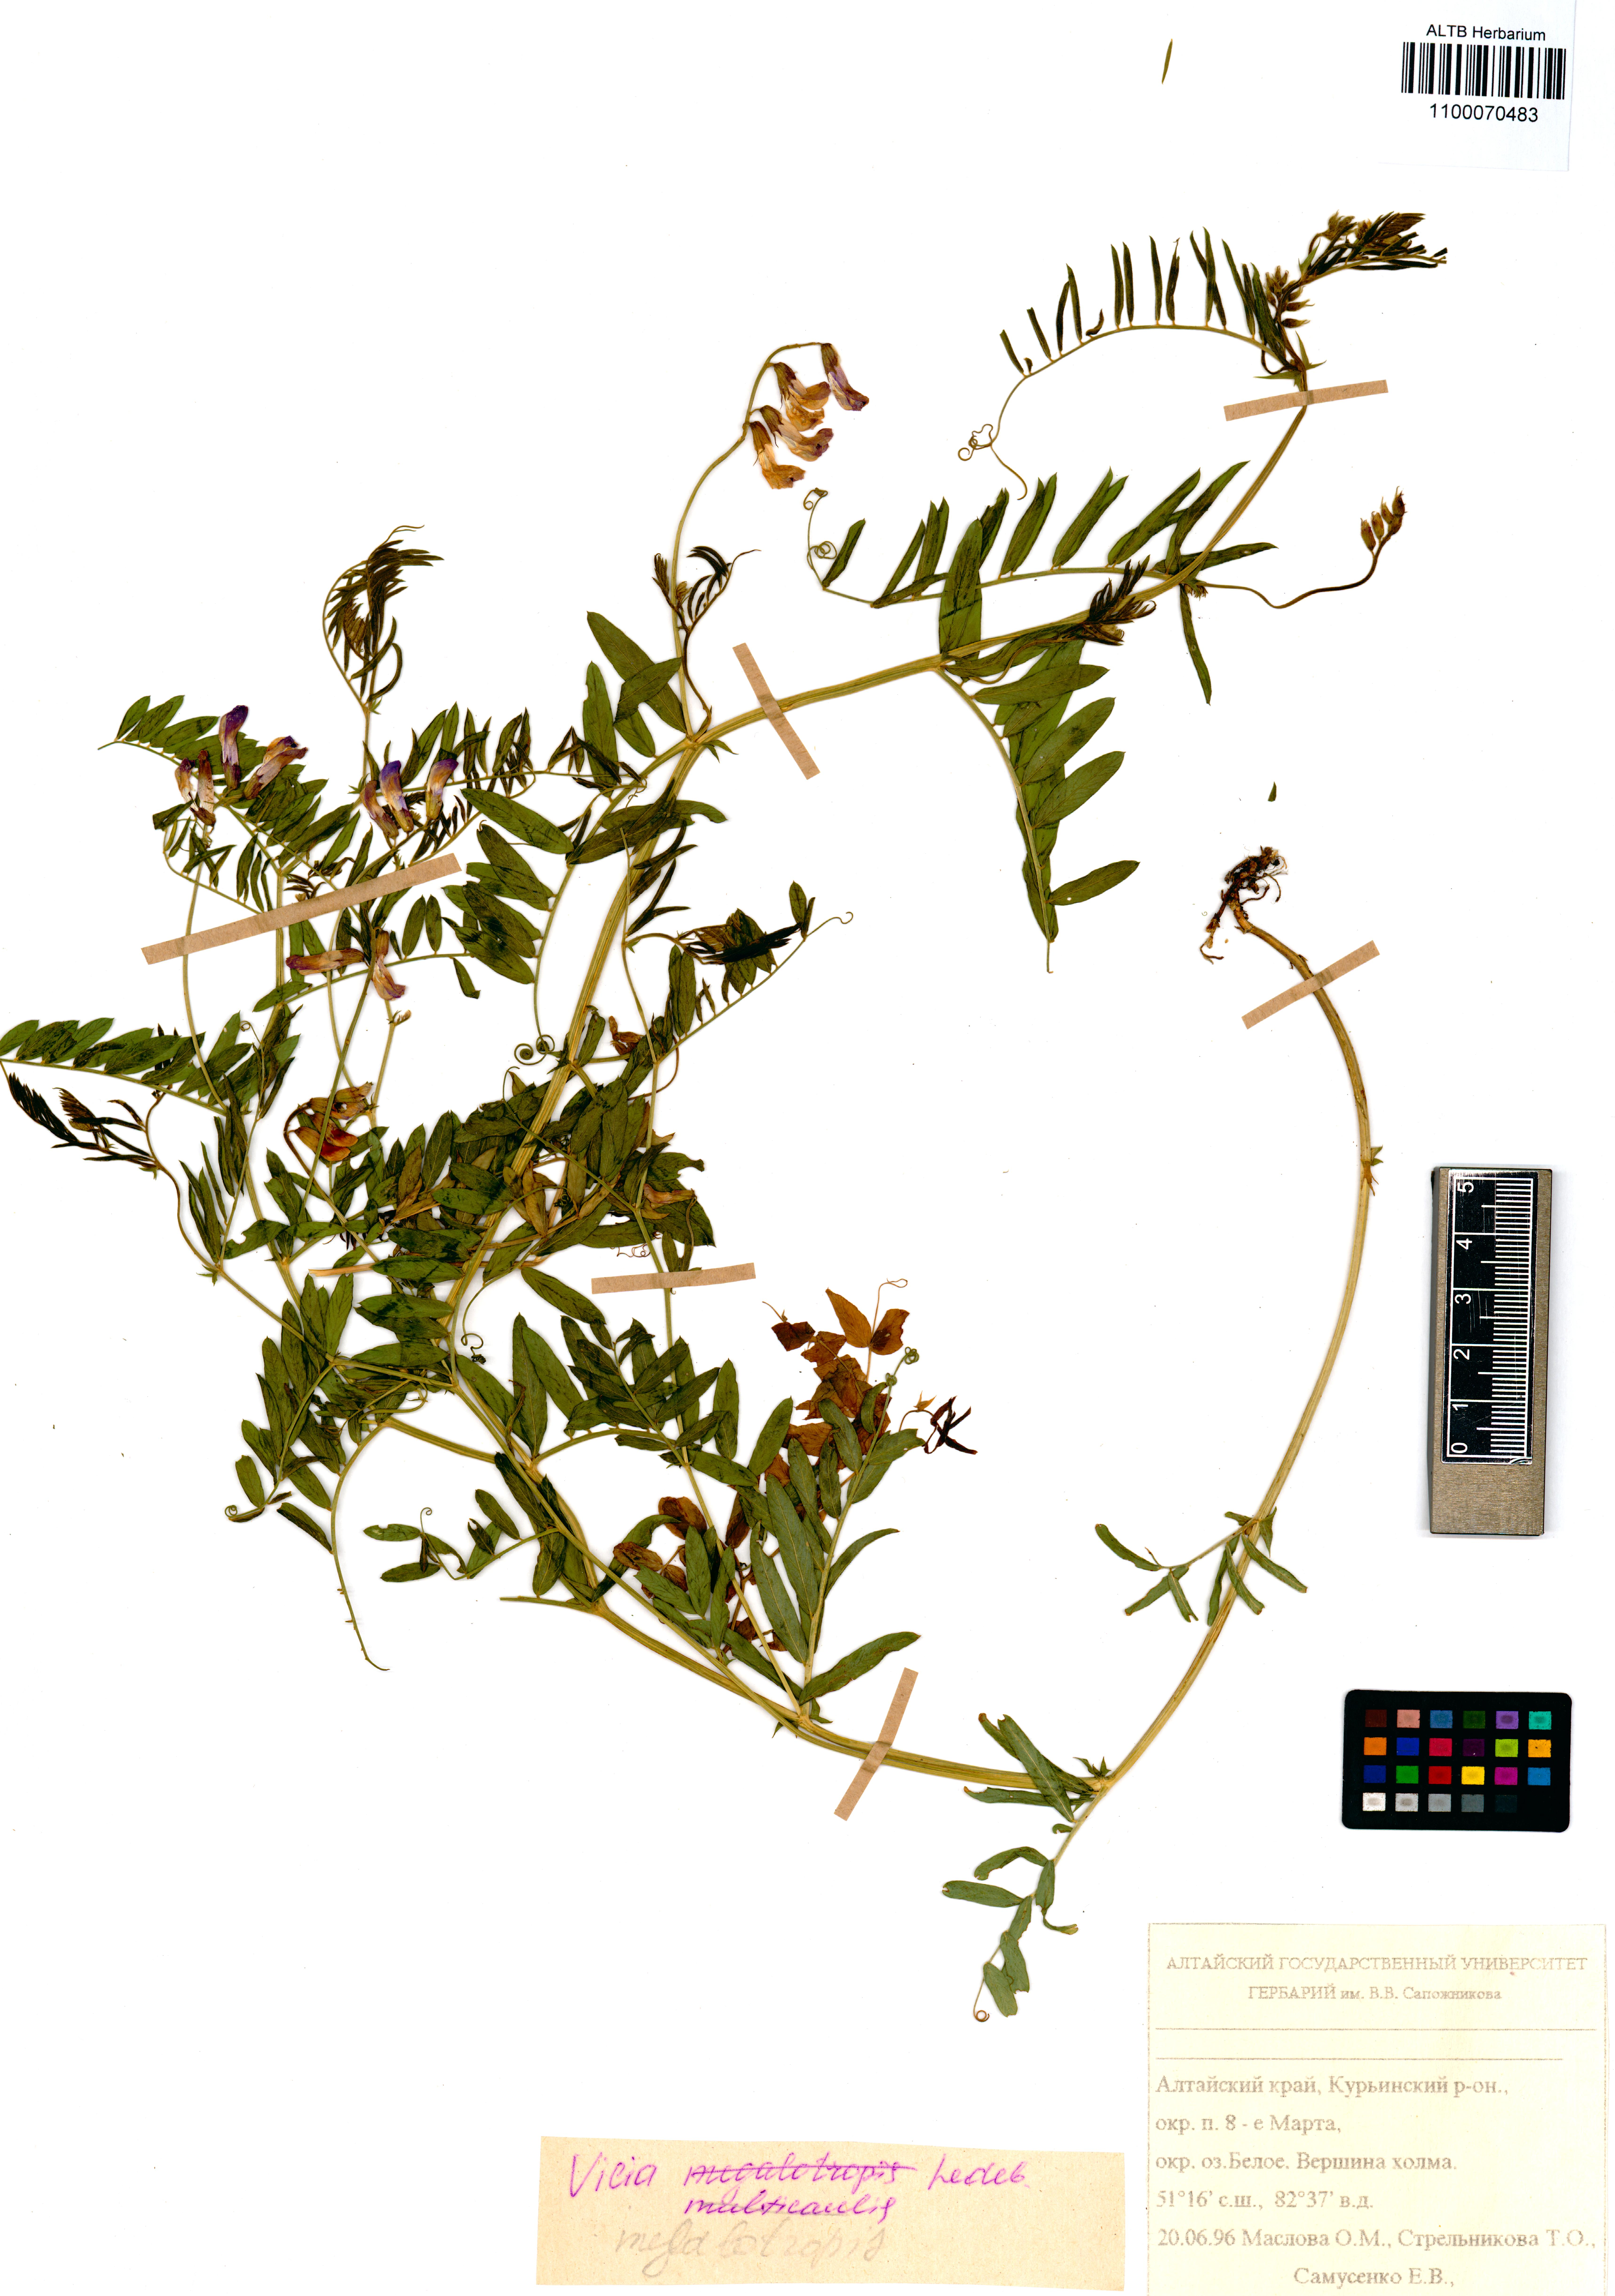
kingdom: Plantae
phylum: Tracheophyta
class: Magnoliopsida
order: Fabales
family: Fabaceae
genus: Vicia
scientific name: Vicia megalotropis
